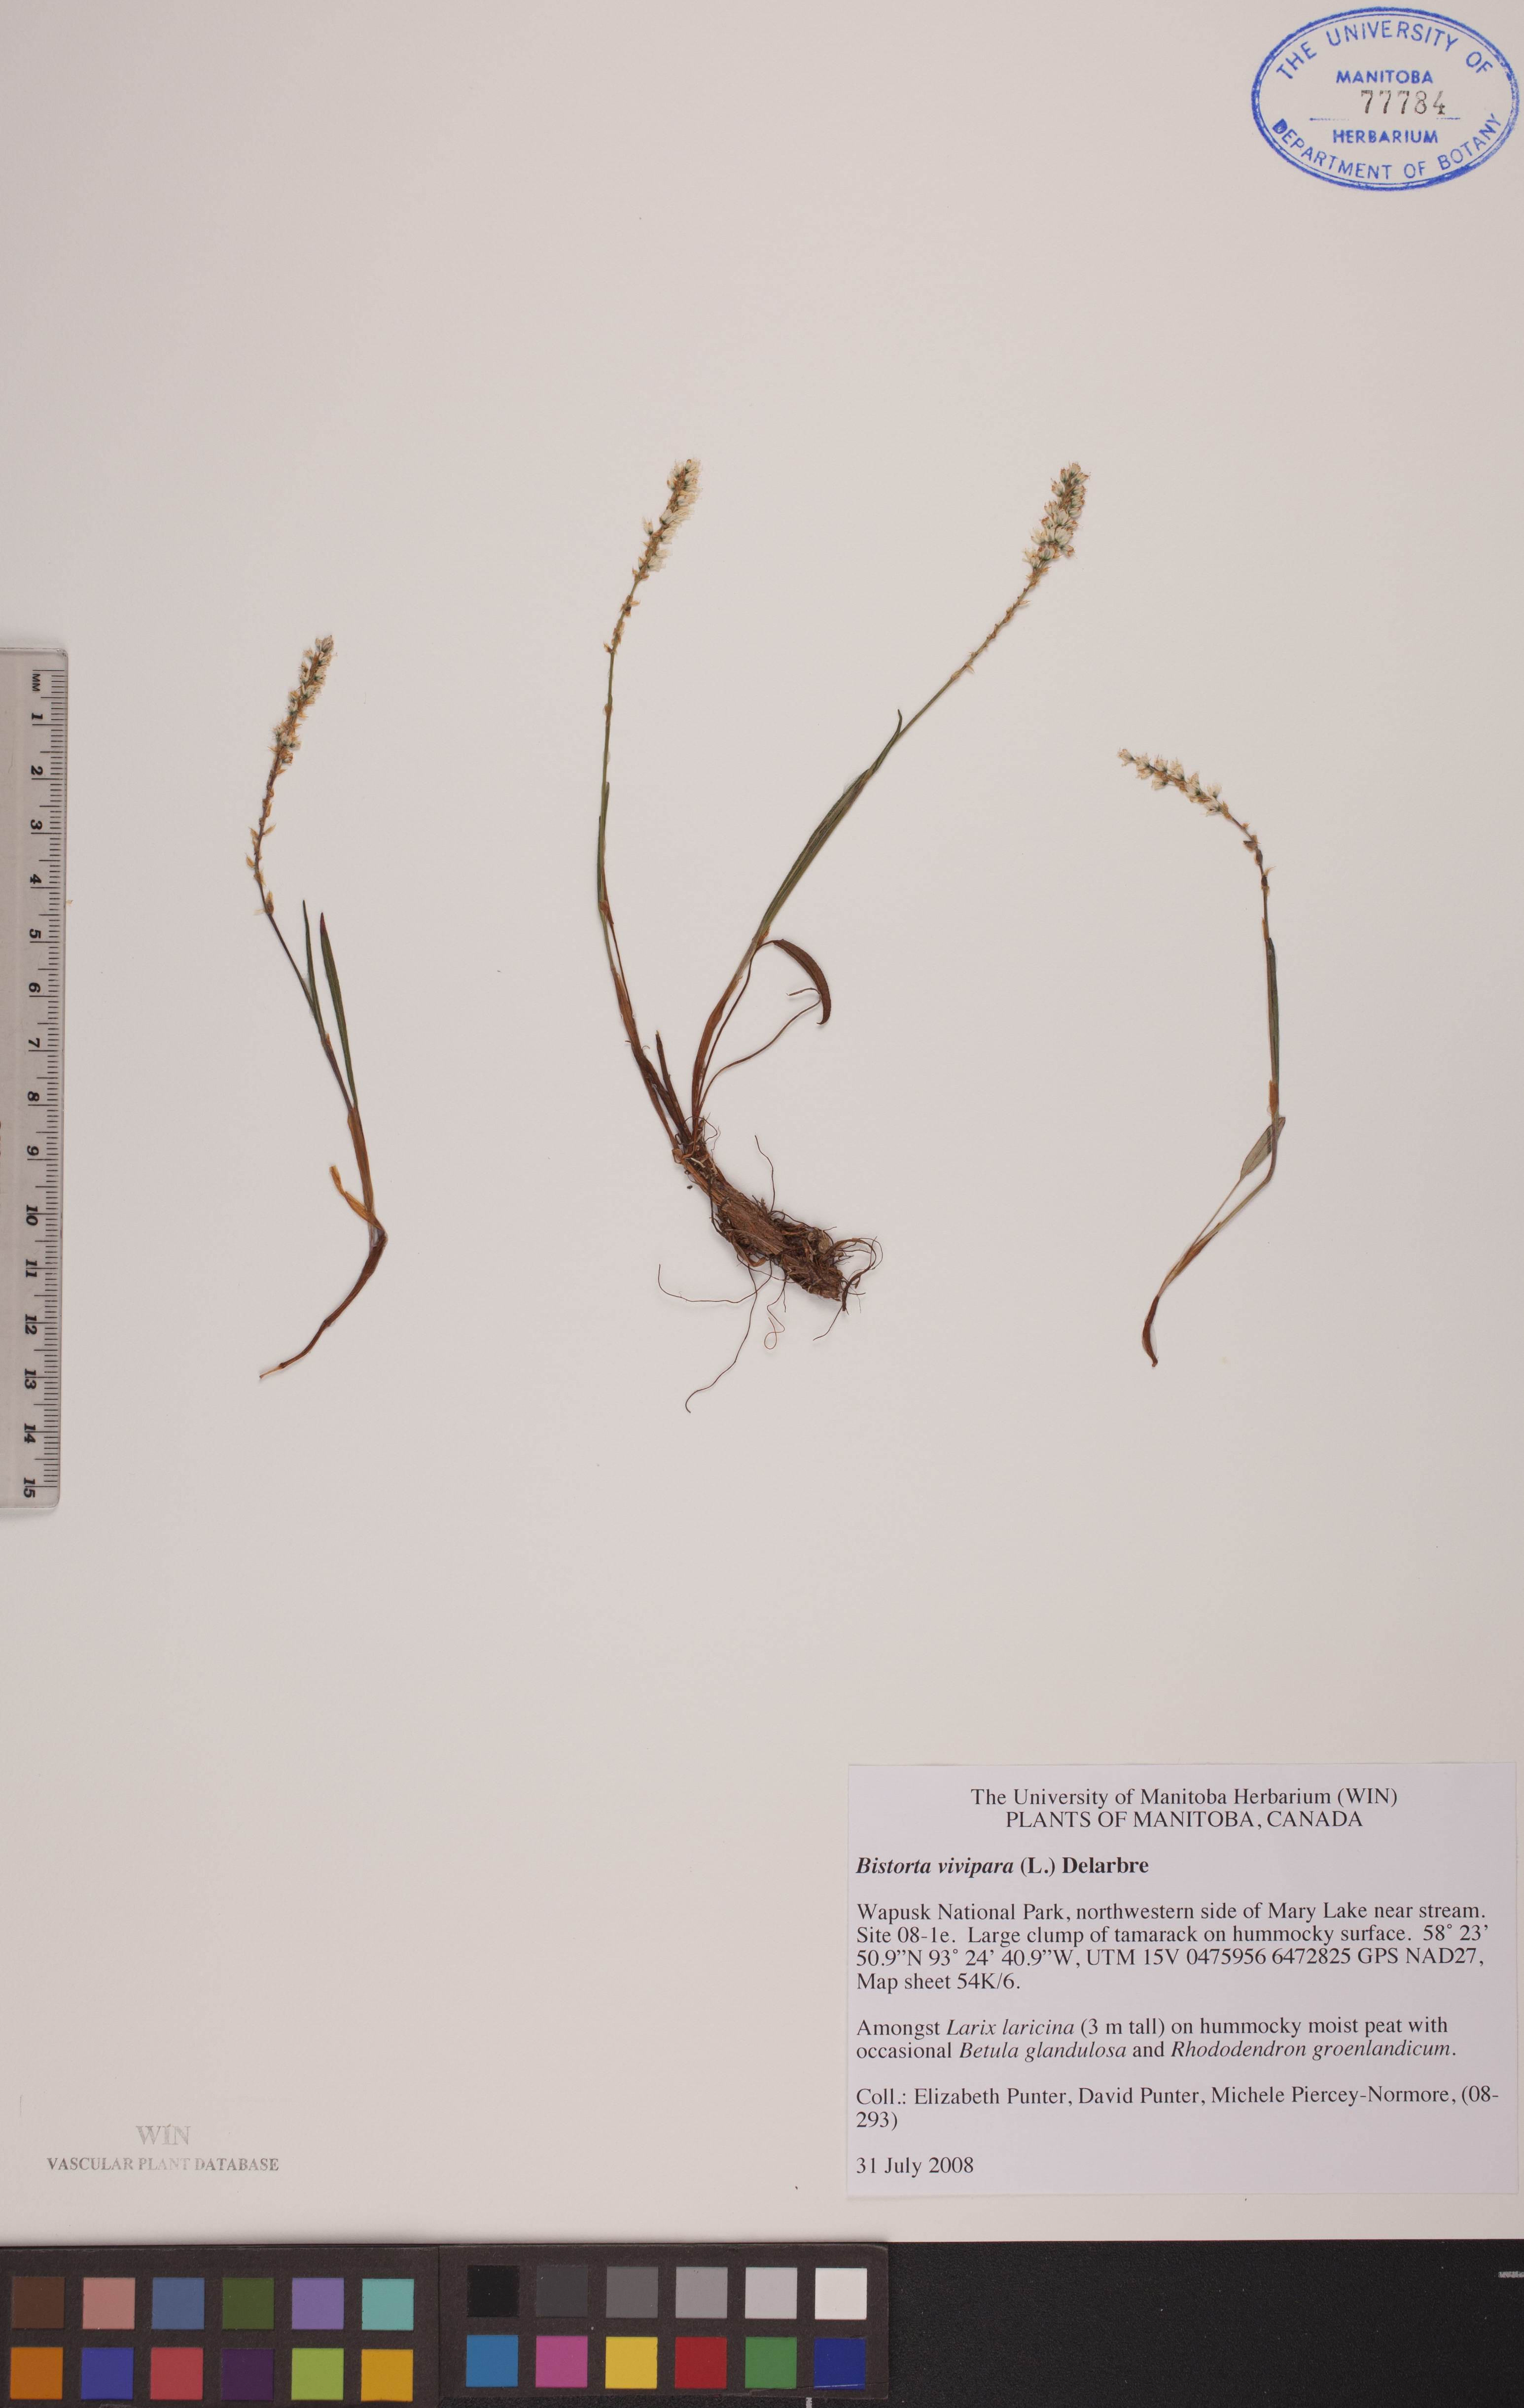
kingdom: Plantae
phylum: Tracheophyta
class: Magnoliopsida
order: Caryophyllales
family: Polygonaceae
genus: Bistorta
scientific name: Bistorta vivipara
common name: Alpine bistort
